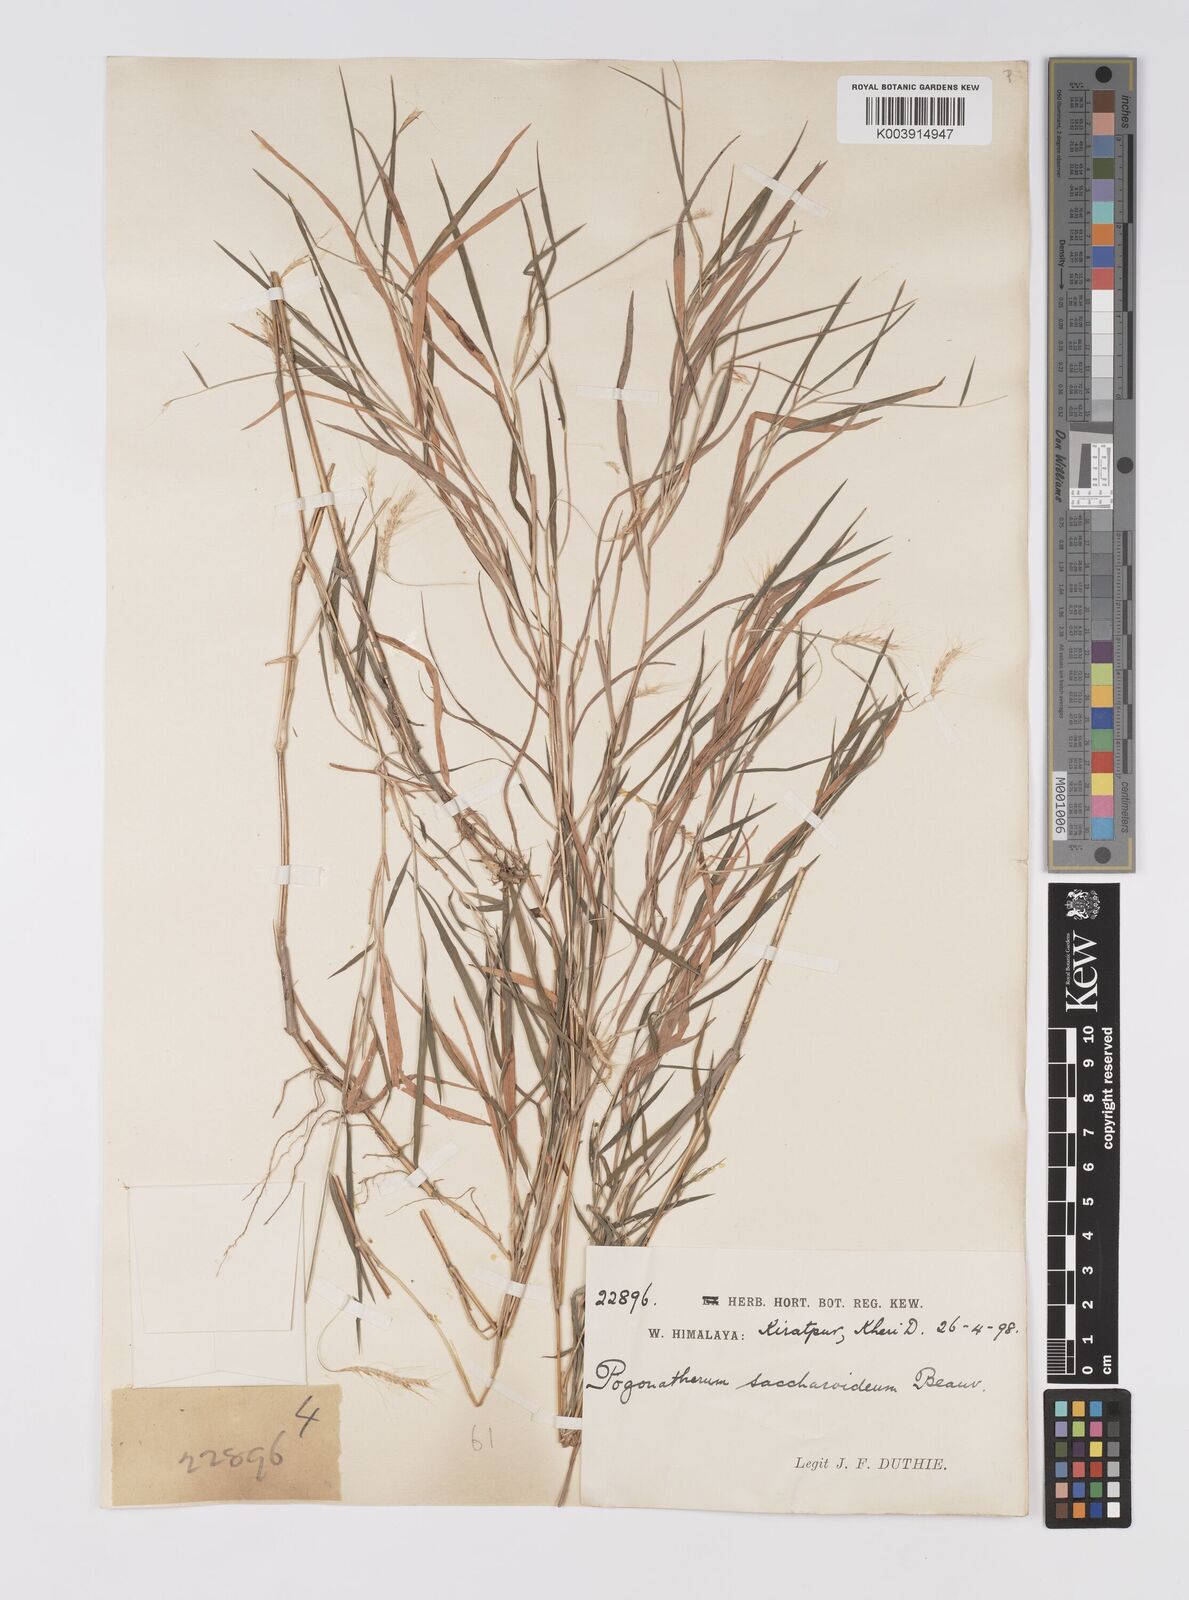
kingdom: Plantae
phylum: Tracheophyta
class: Liliopsida
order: Poales
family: Poaceae
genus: Pogonatherum
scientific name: Pogonatherum paniceum
